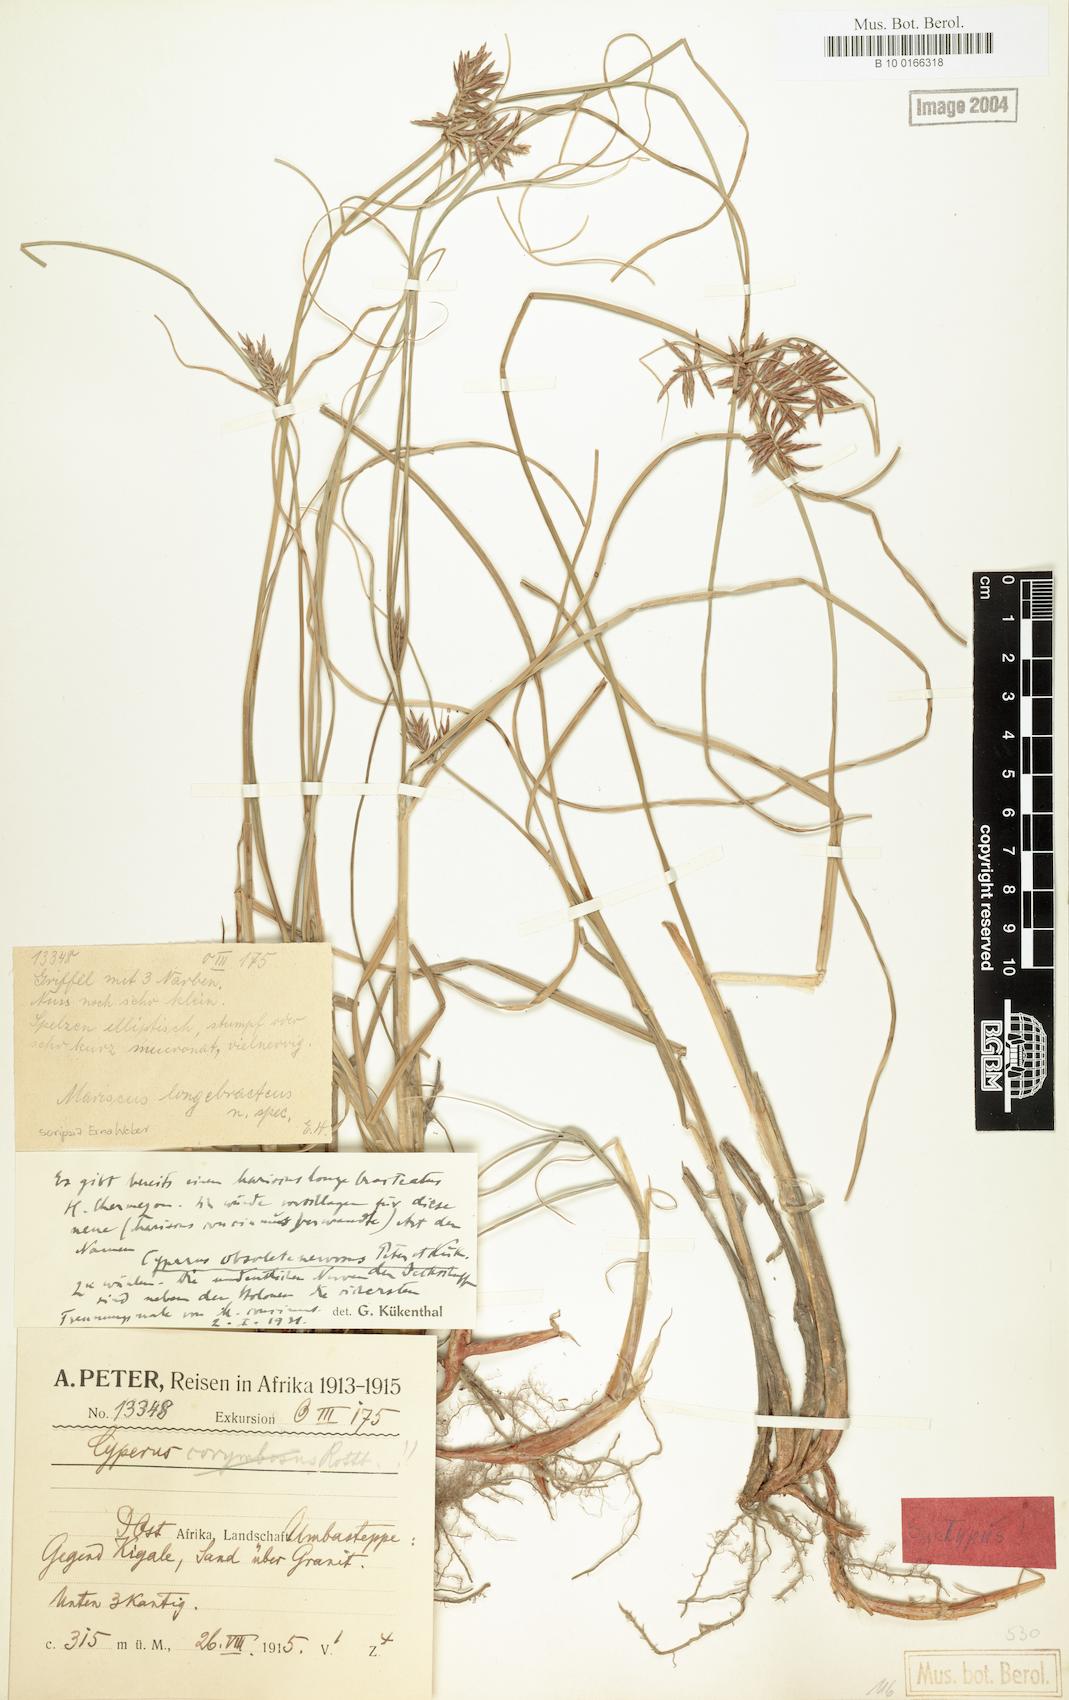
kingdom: Plantae
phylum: Tracheophyta
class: Liliopsida
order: Poales
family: Cyperaceae
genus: Cyperus
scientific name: Cyperus vestitus
